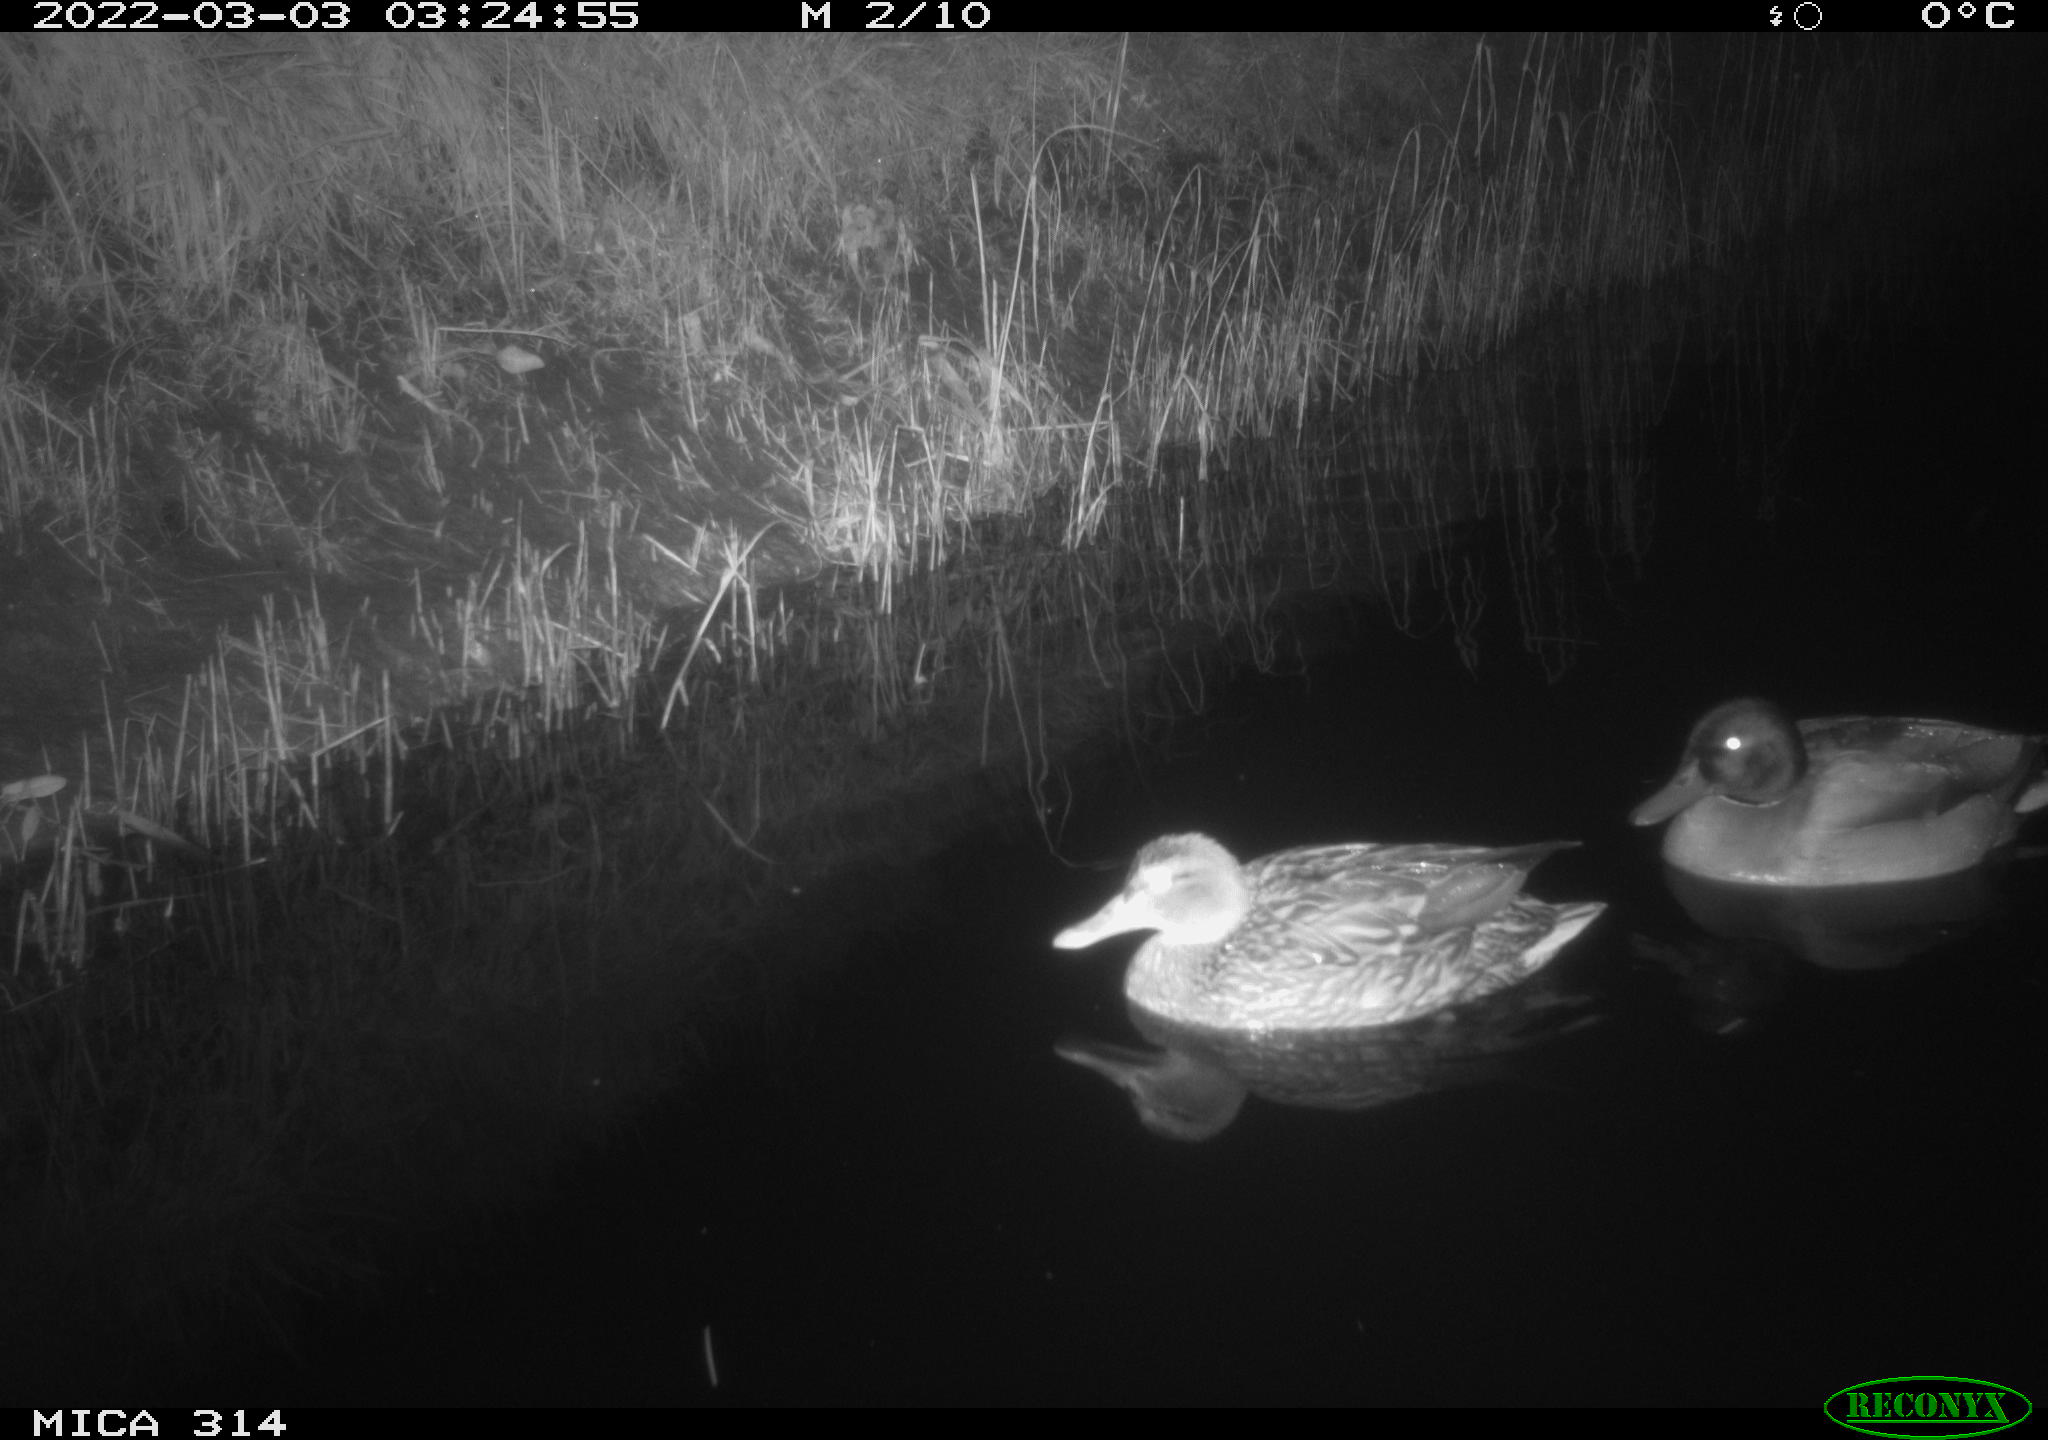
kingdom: Animalia
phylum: Chordata
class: Aves
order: Anseriformes
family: Anatidae
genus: Anas
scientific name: Anas platyrhynchos
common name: Mallard
